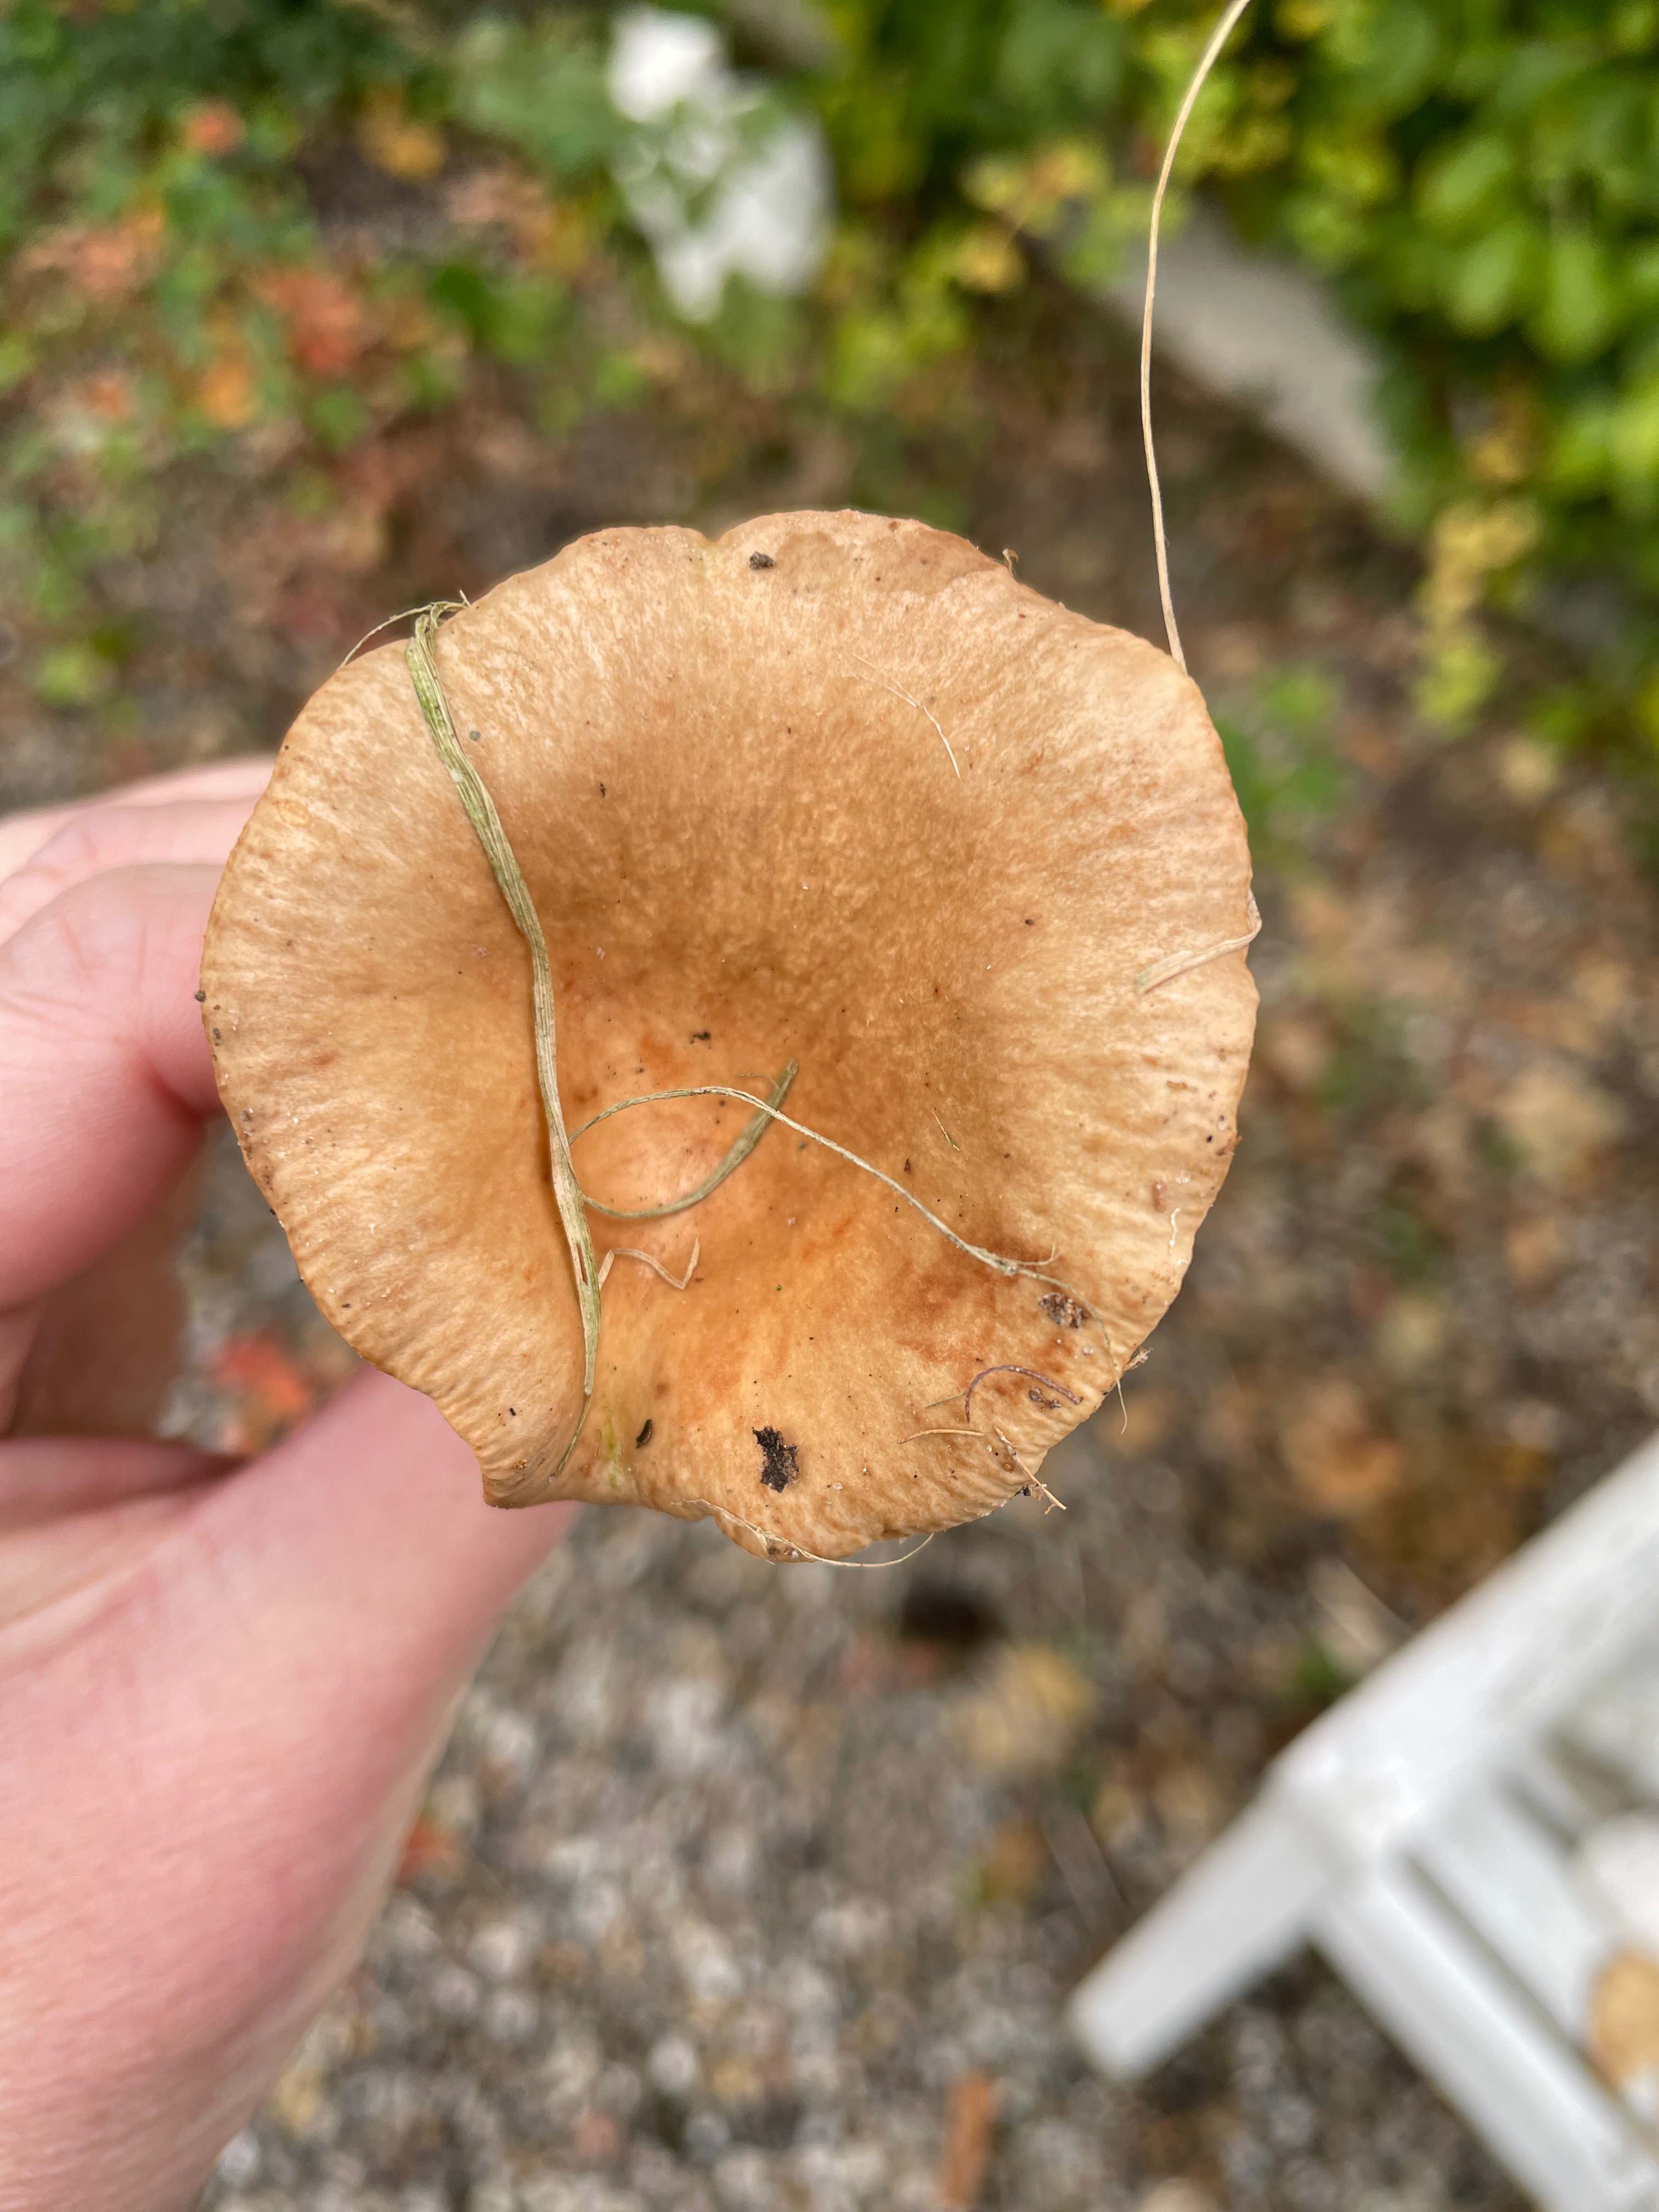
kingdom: Fungi
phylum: Basidiomycota
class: Agaricomycetes
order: Russulales
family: Russulaceae
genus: Lactarius
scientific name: Lactarius
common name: mælkehat
